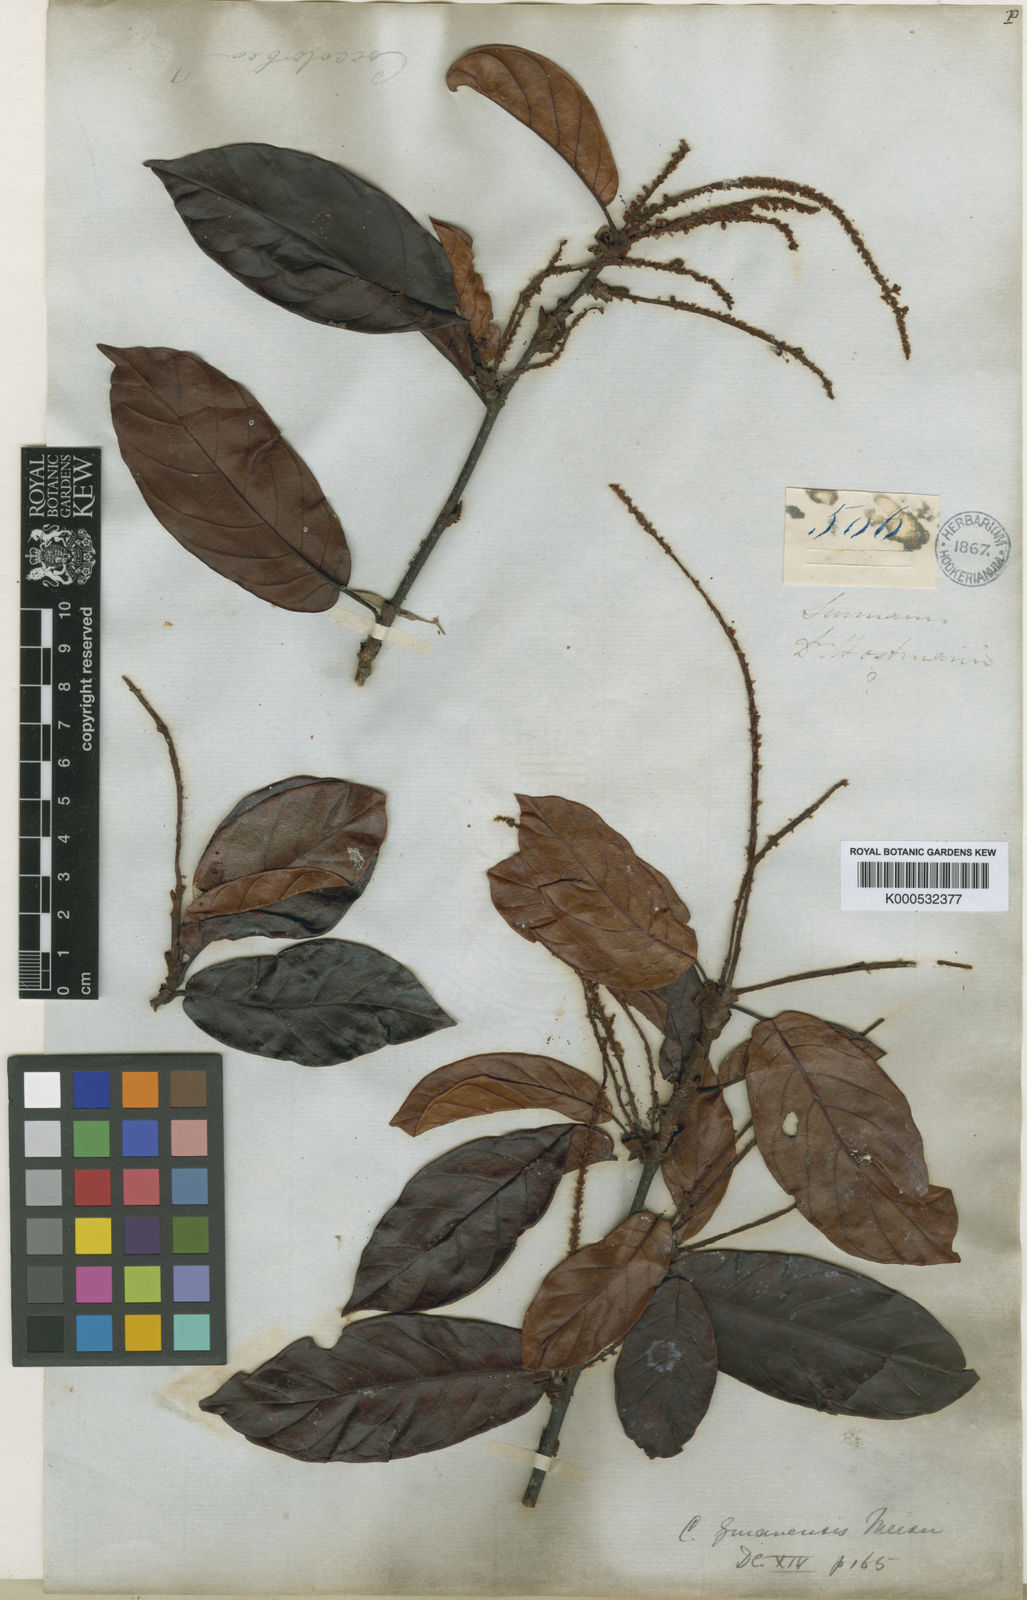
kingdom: Plantae
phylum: Tracheophyta
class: Magnoliopsida
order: Caryophyllales
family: Polygonaceae
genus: Coccoloba
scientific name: Coccoloba nitida
